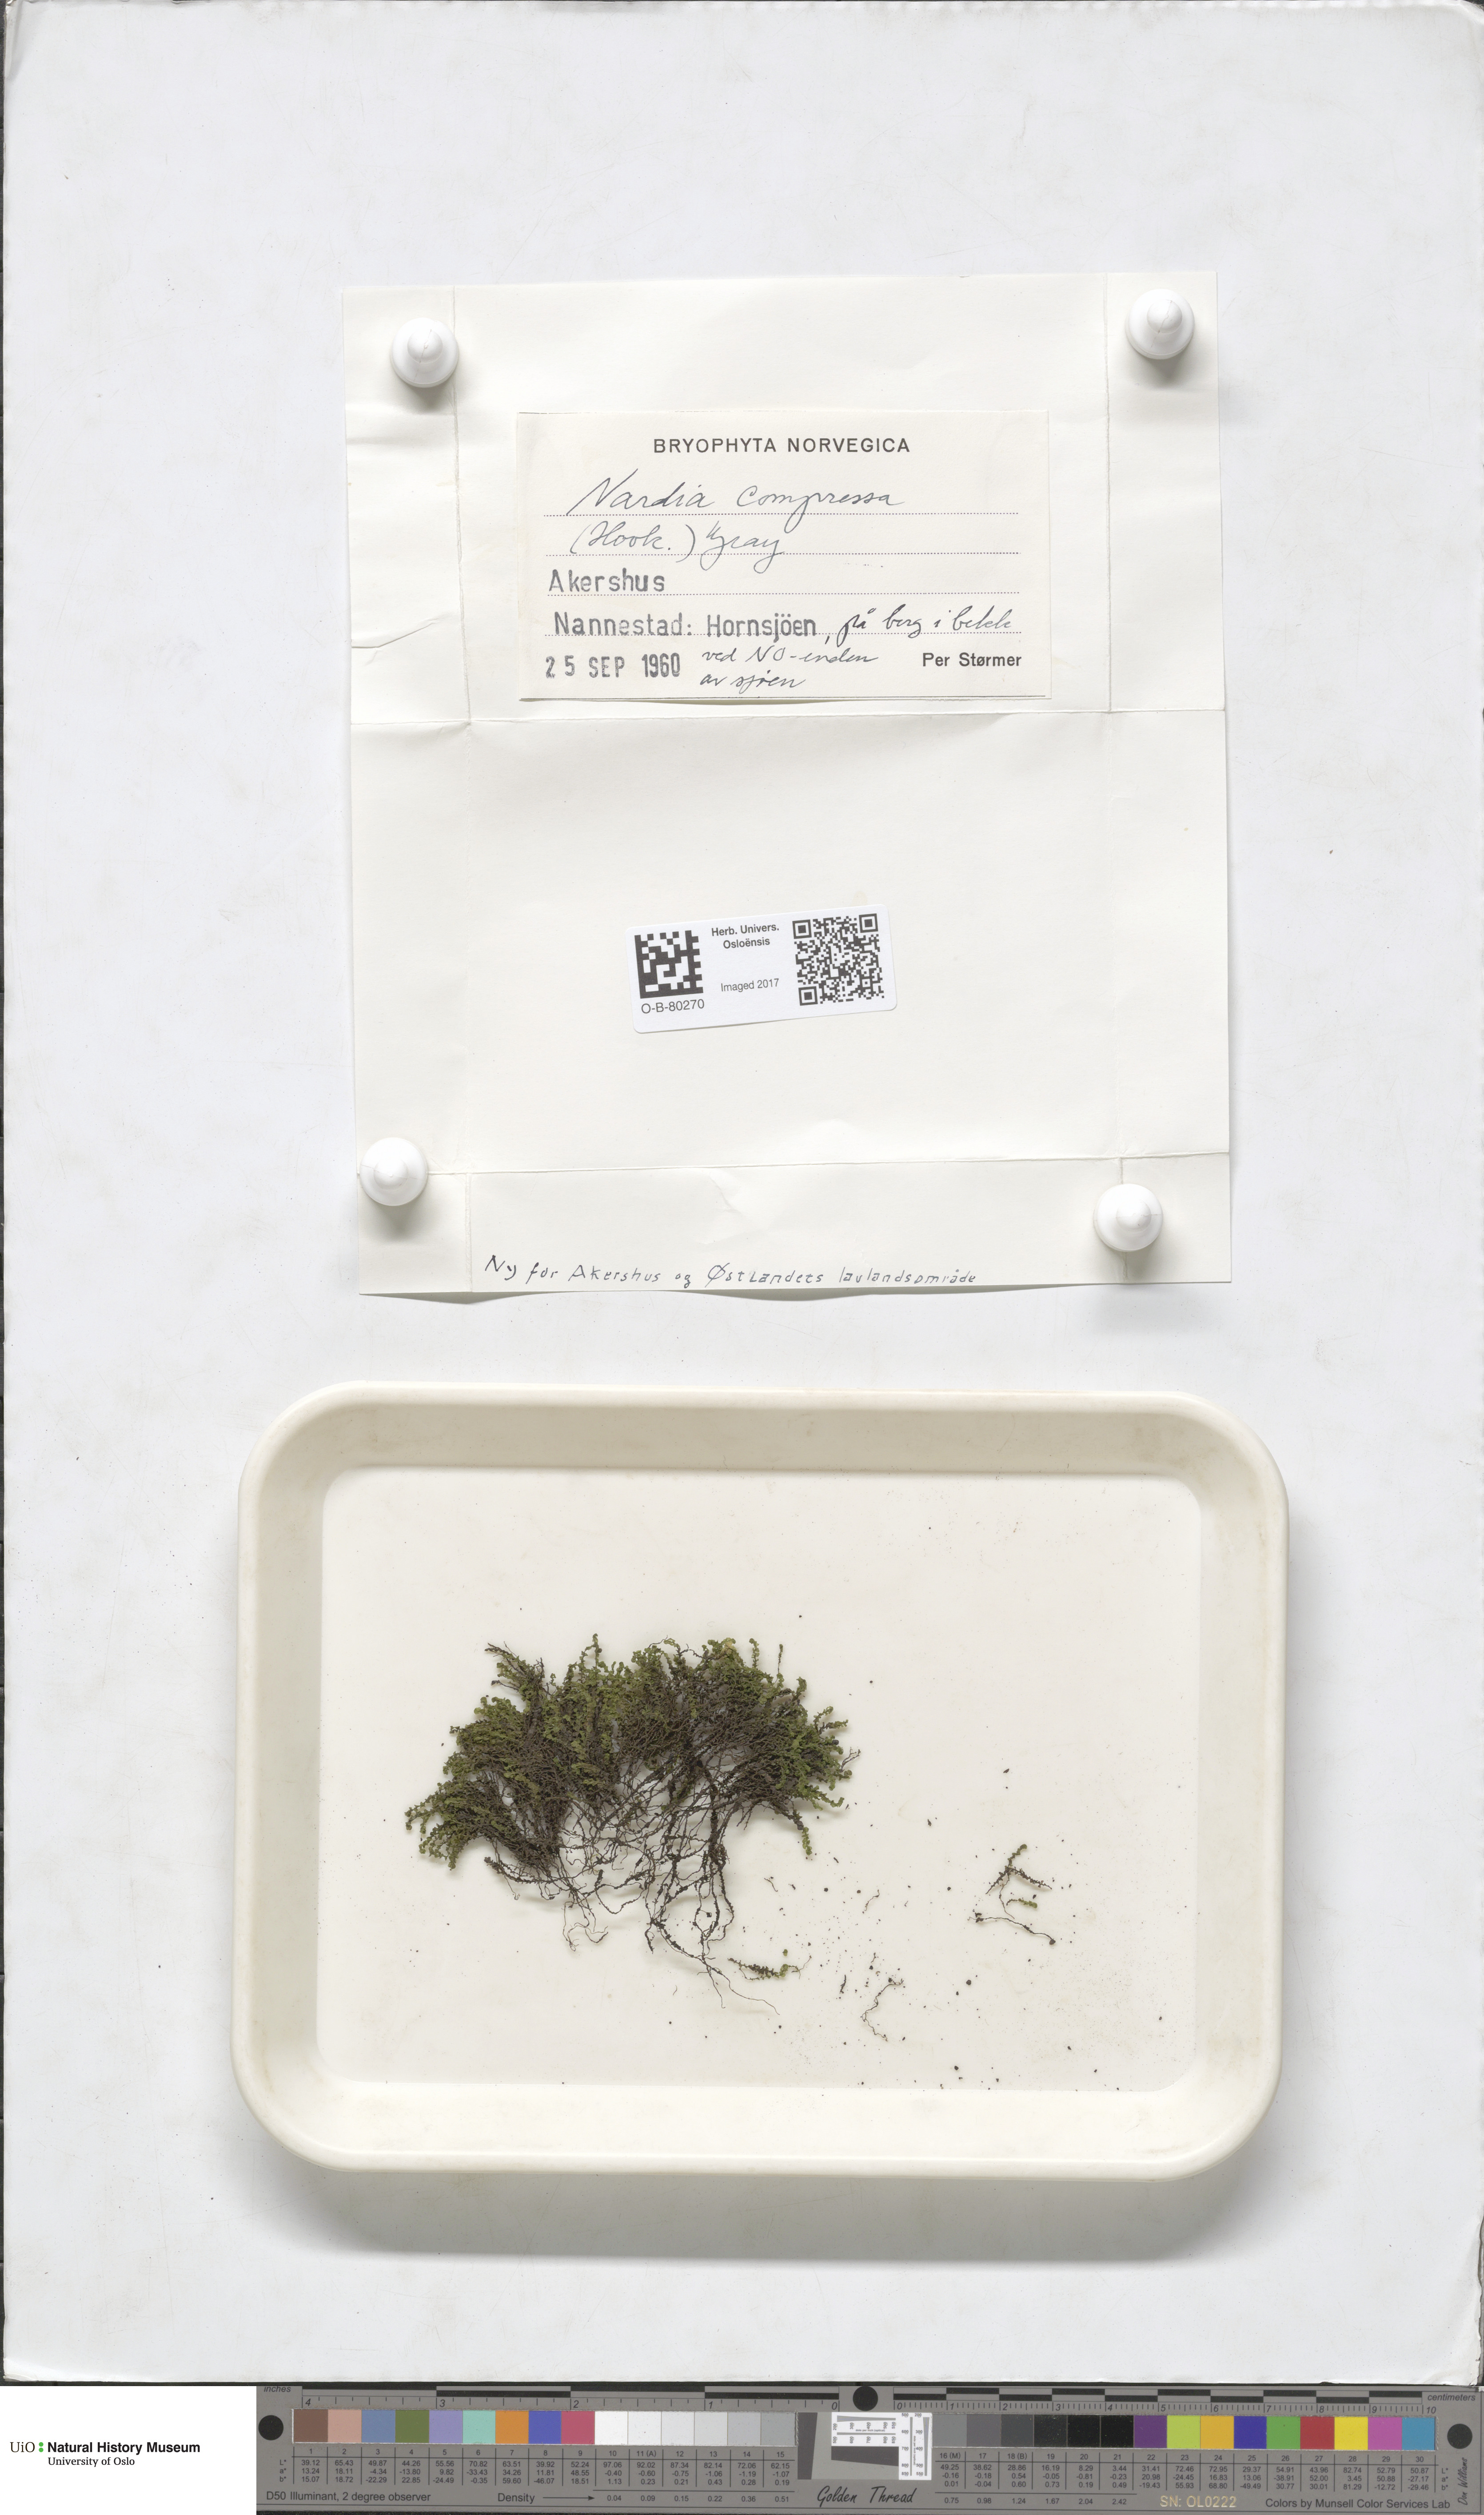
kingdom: Plantae
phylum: Marchantiophyta
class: Jungermanniopsida
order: Jungermanniales
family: Gymnomitriaceae
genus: Nardia
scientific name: Nardia compressa
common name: Compressed flapwort
